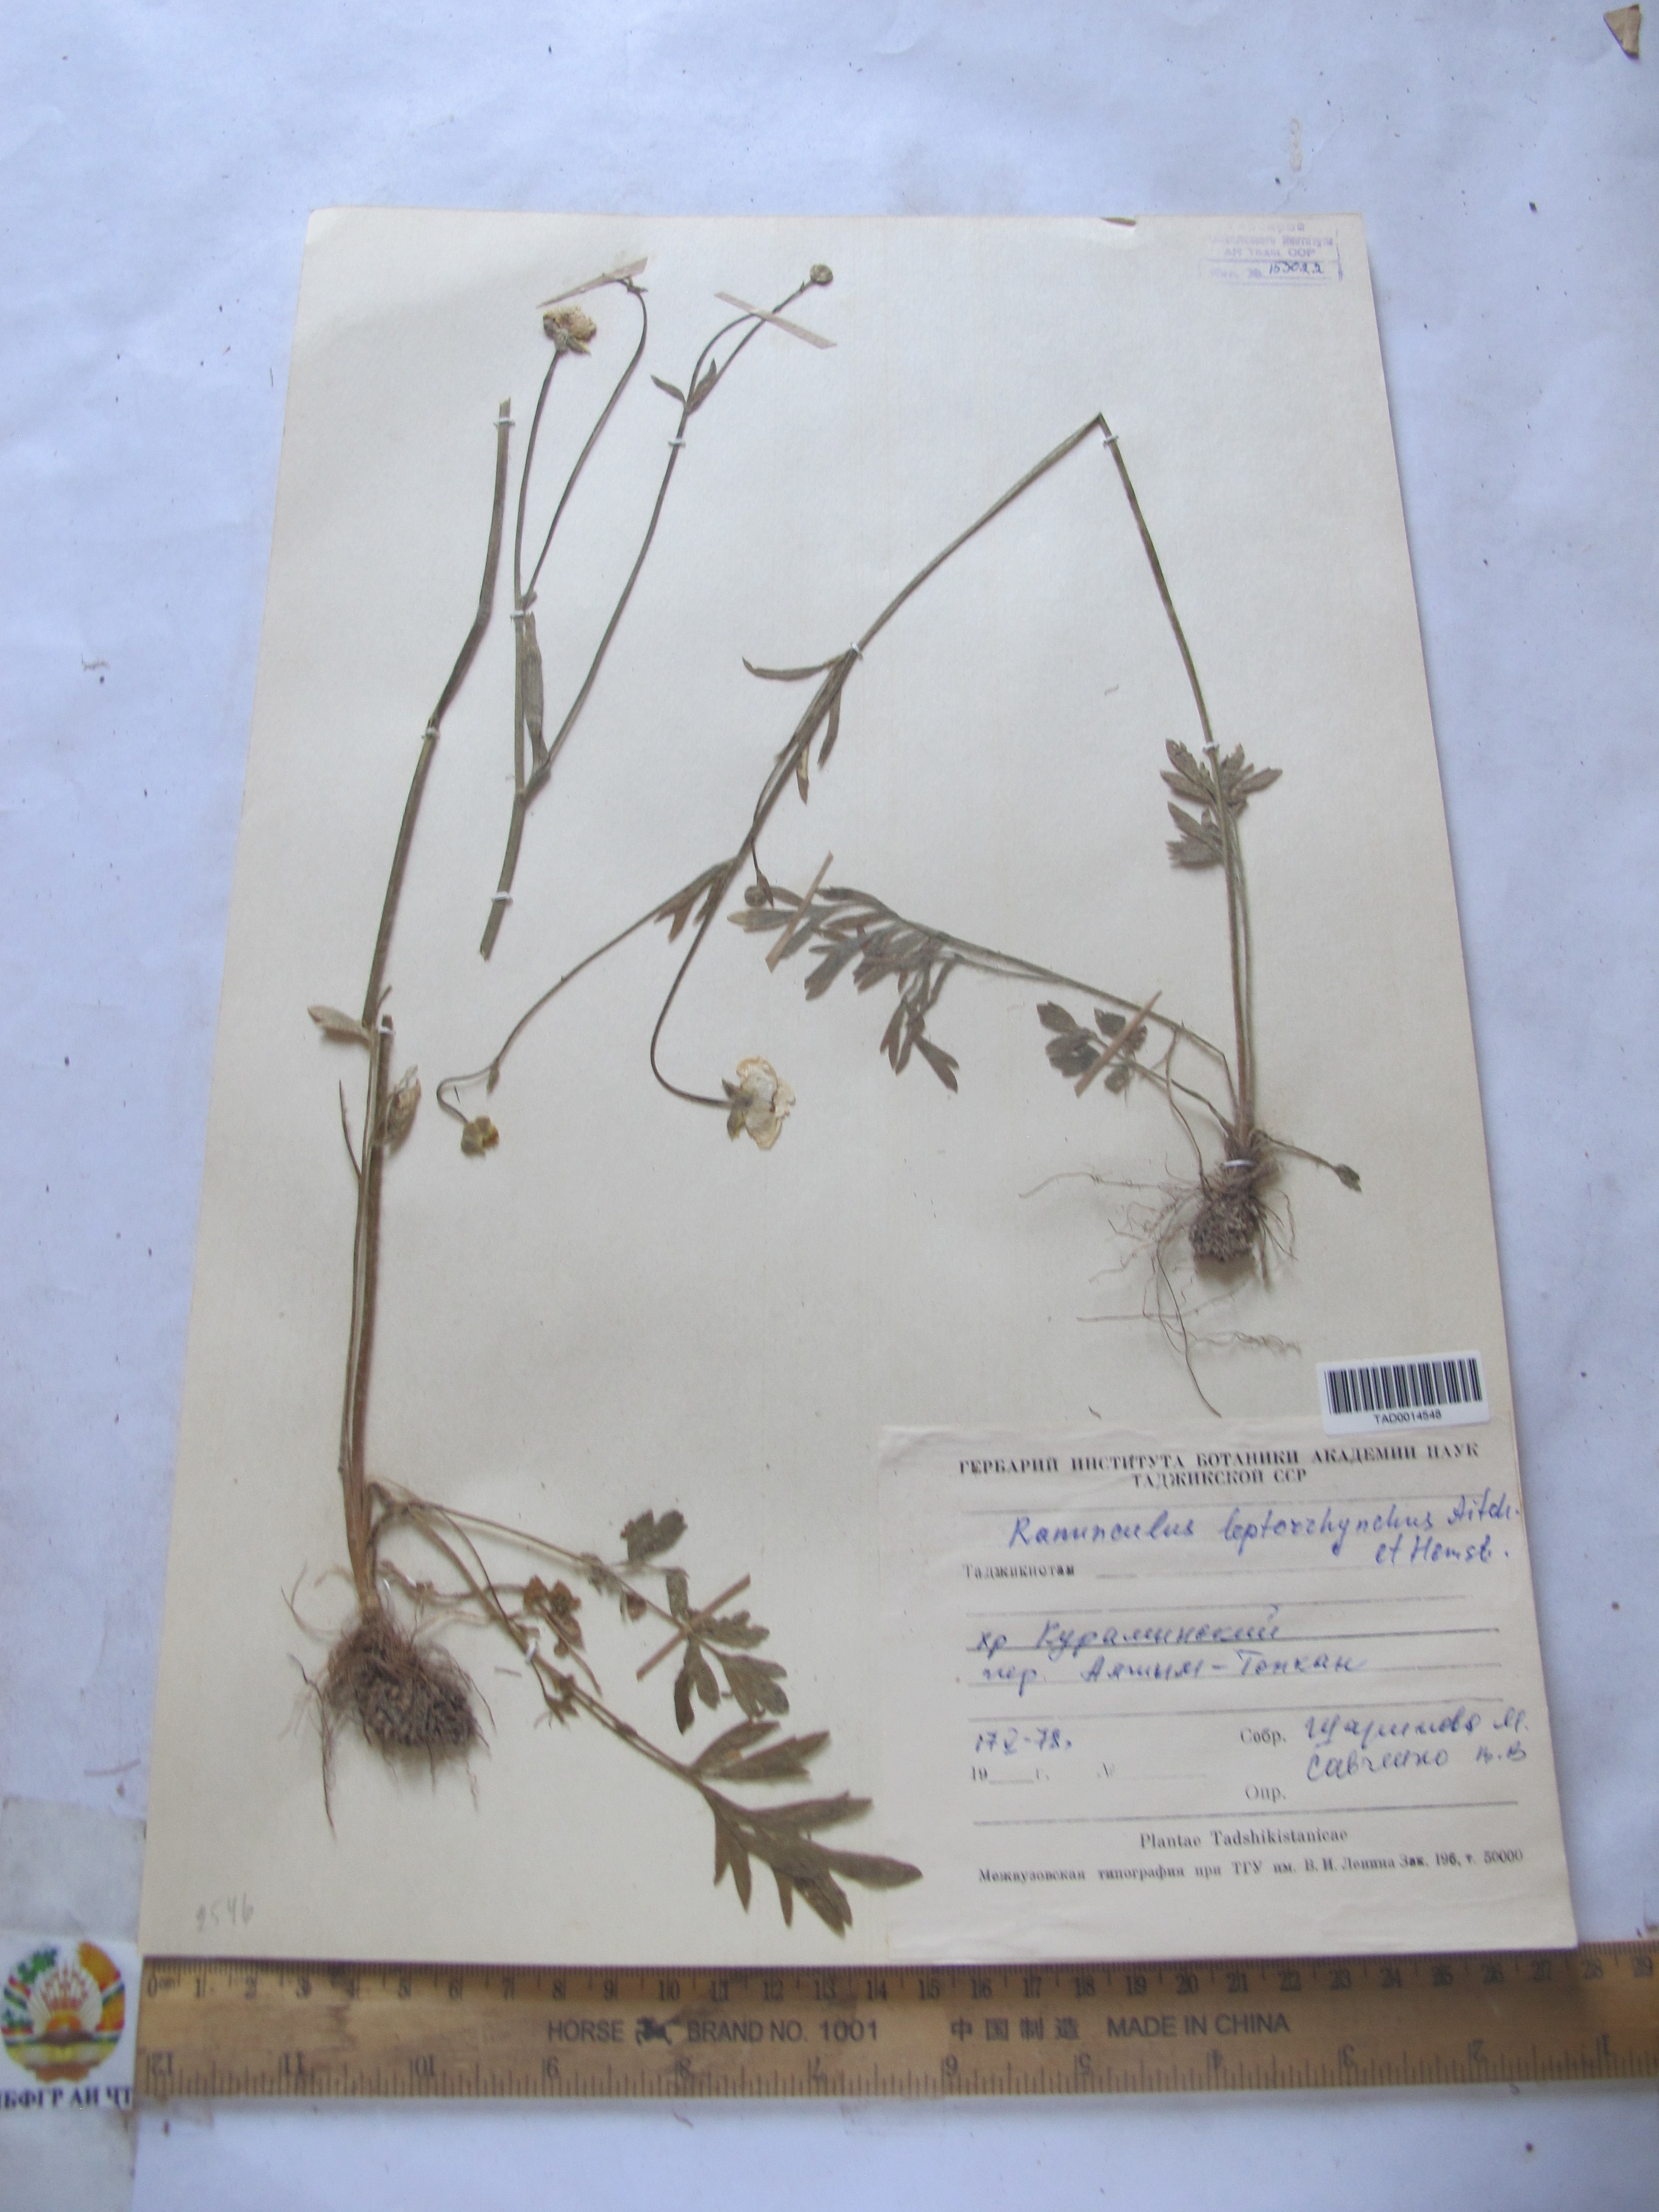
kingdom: Plantae
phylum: Tracheophyta
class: Magnoliopsida
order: Ranunculales
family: Ranunculaceae
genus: Ranunculus
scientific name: Ranunculus leptorrhynchus
